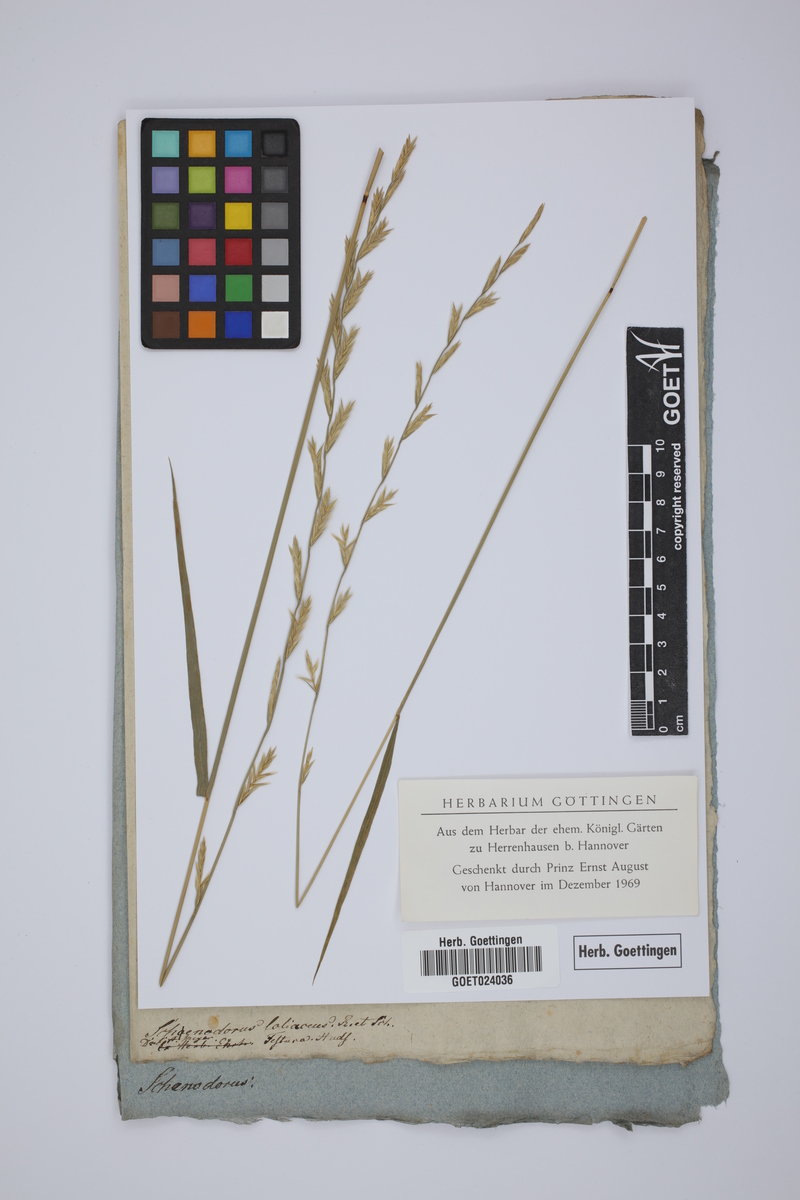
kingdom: Plantae
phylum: Tracheophyta
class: Liliopsida
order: Poales
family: Poaceae
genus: Lolium
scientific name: Lolium elongatum
